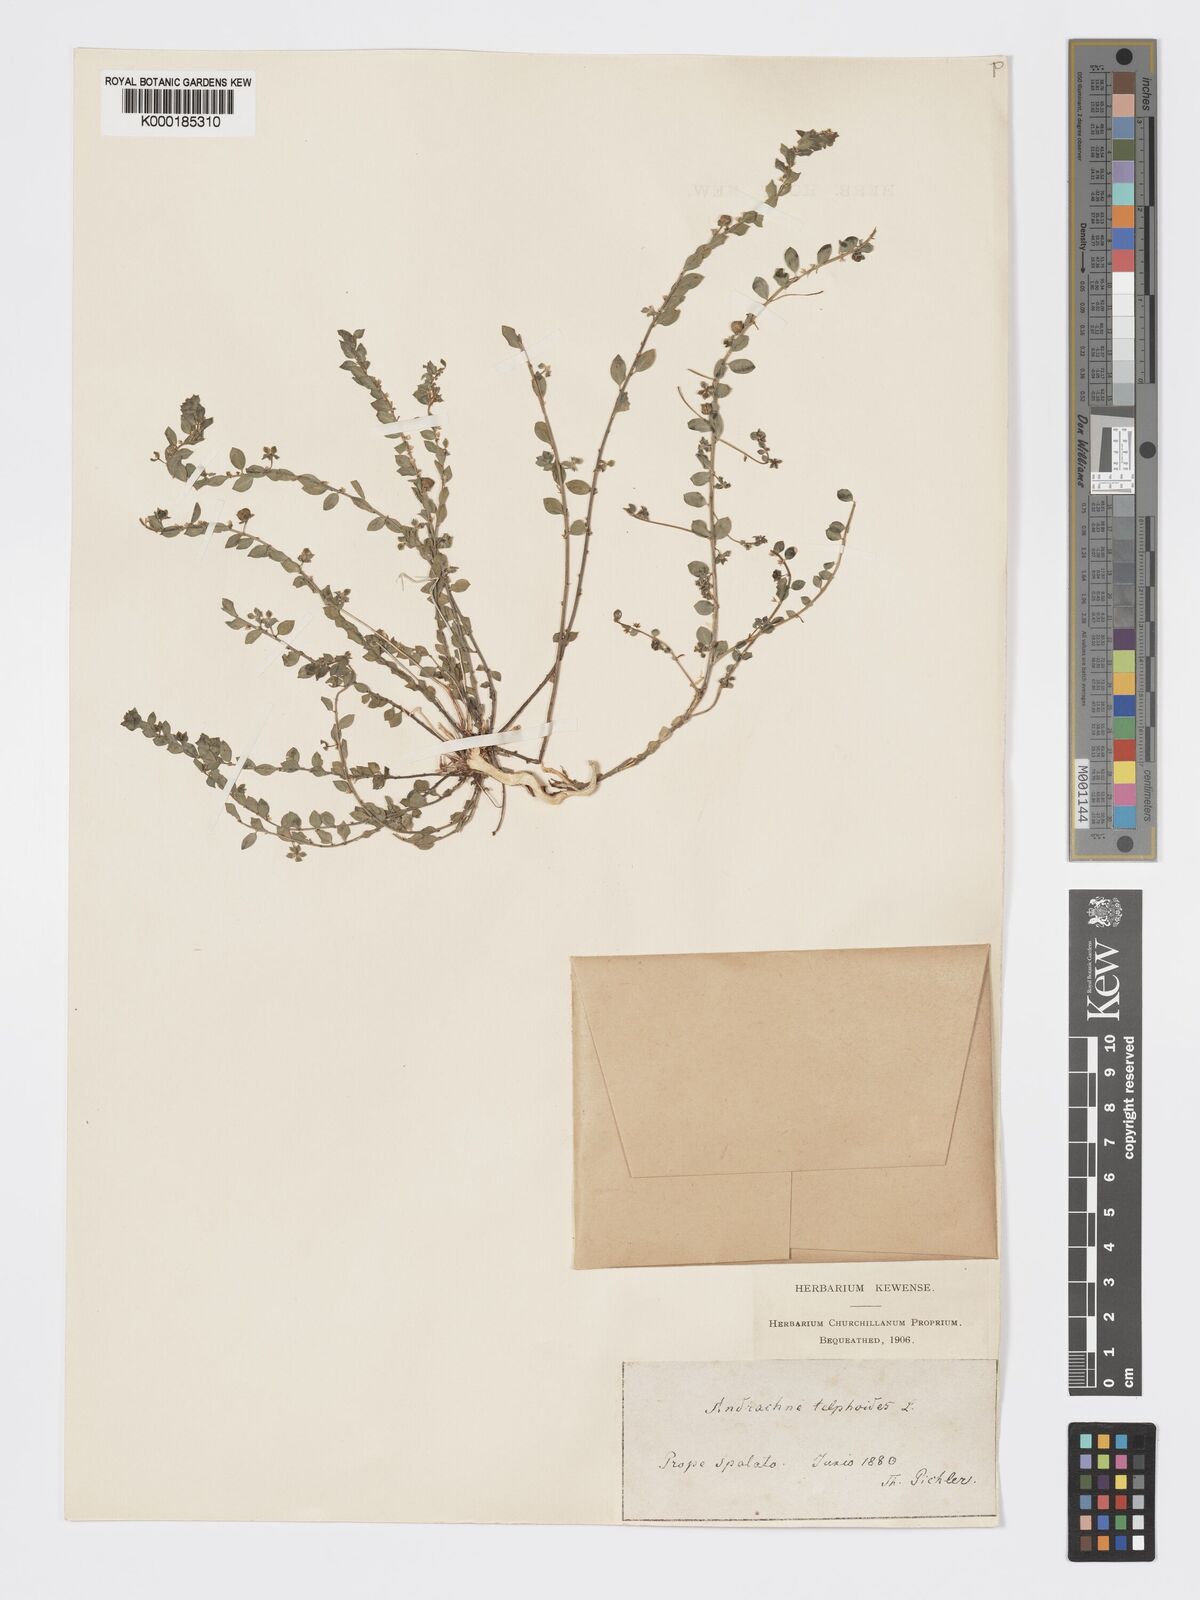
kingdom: Plantae
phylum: Tracheophyta
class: Magnoliopsida
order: Malpighiales
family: Phyllanthaceae
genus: Andrachne
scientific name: Andrachne telephioides
